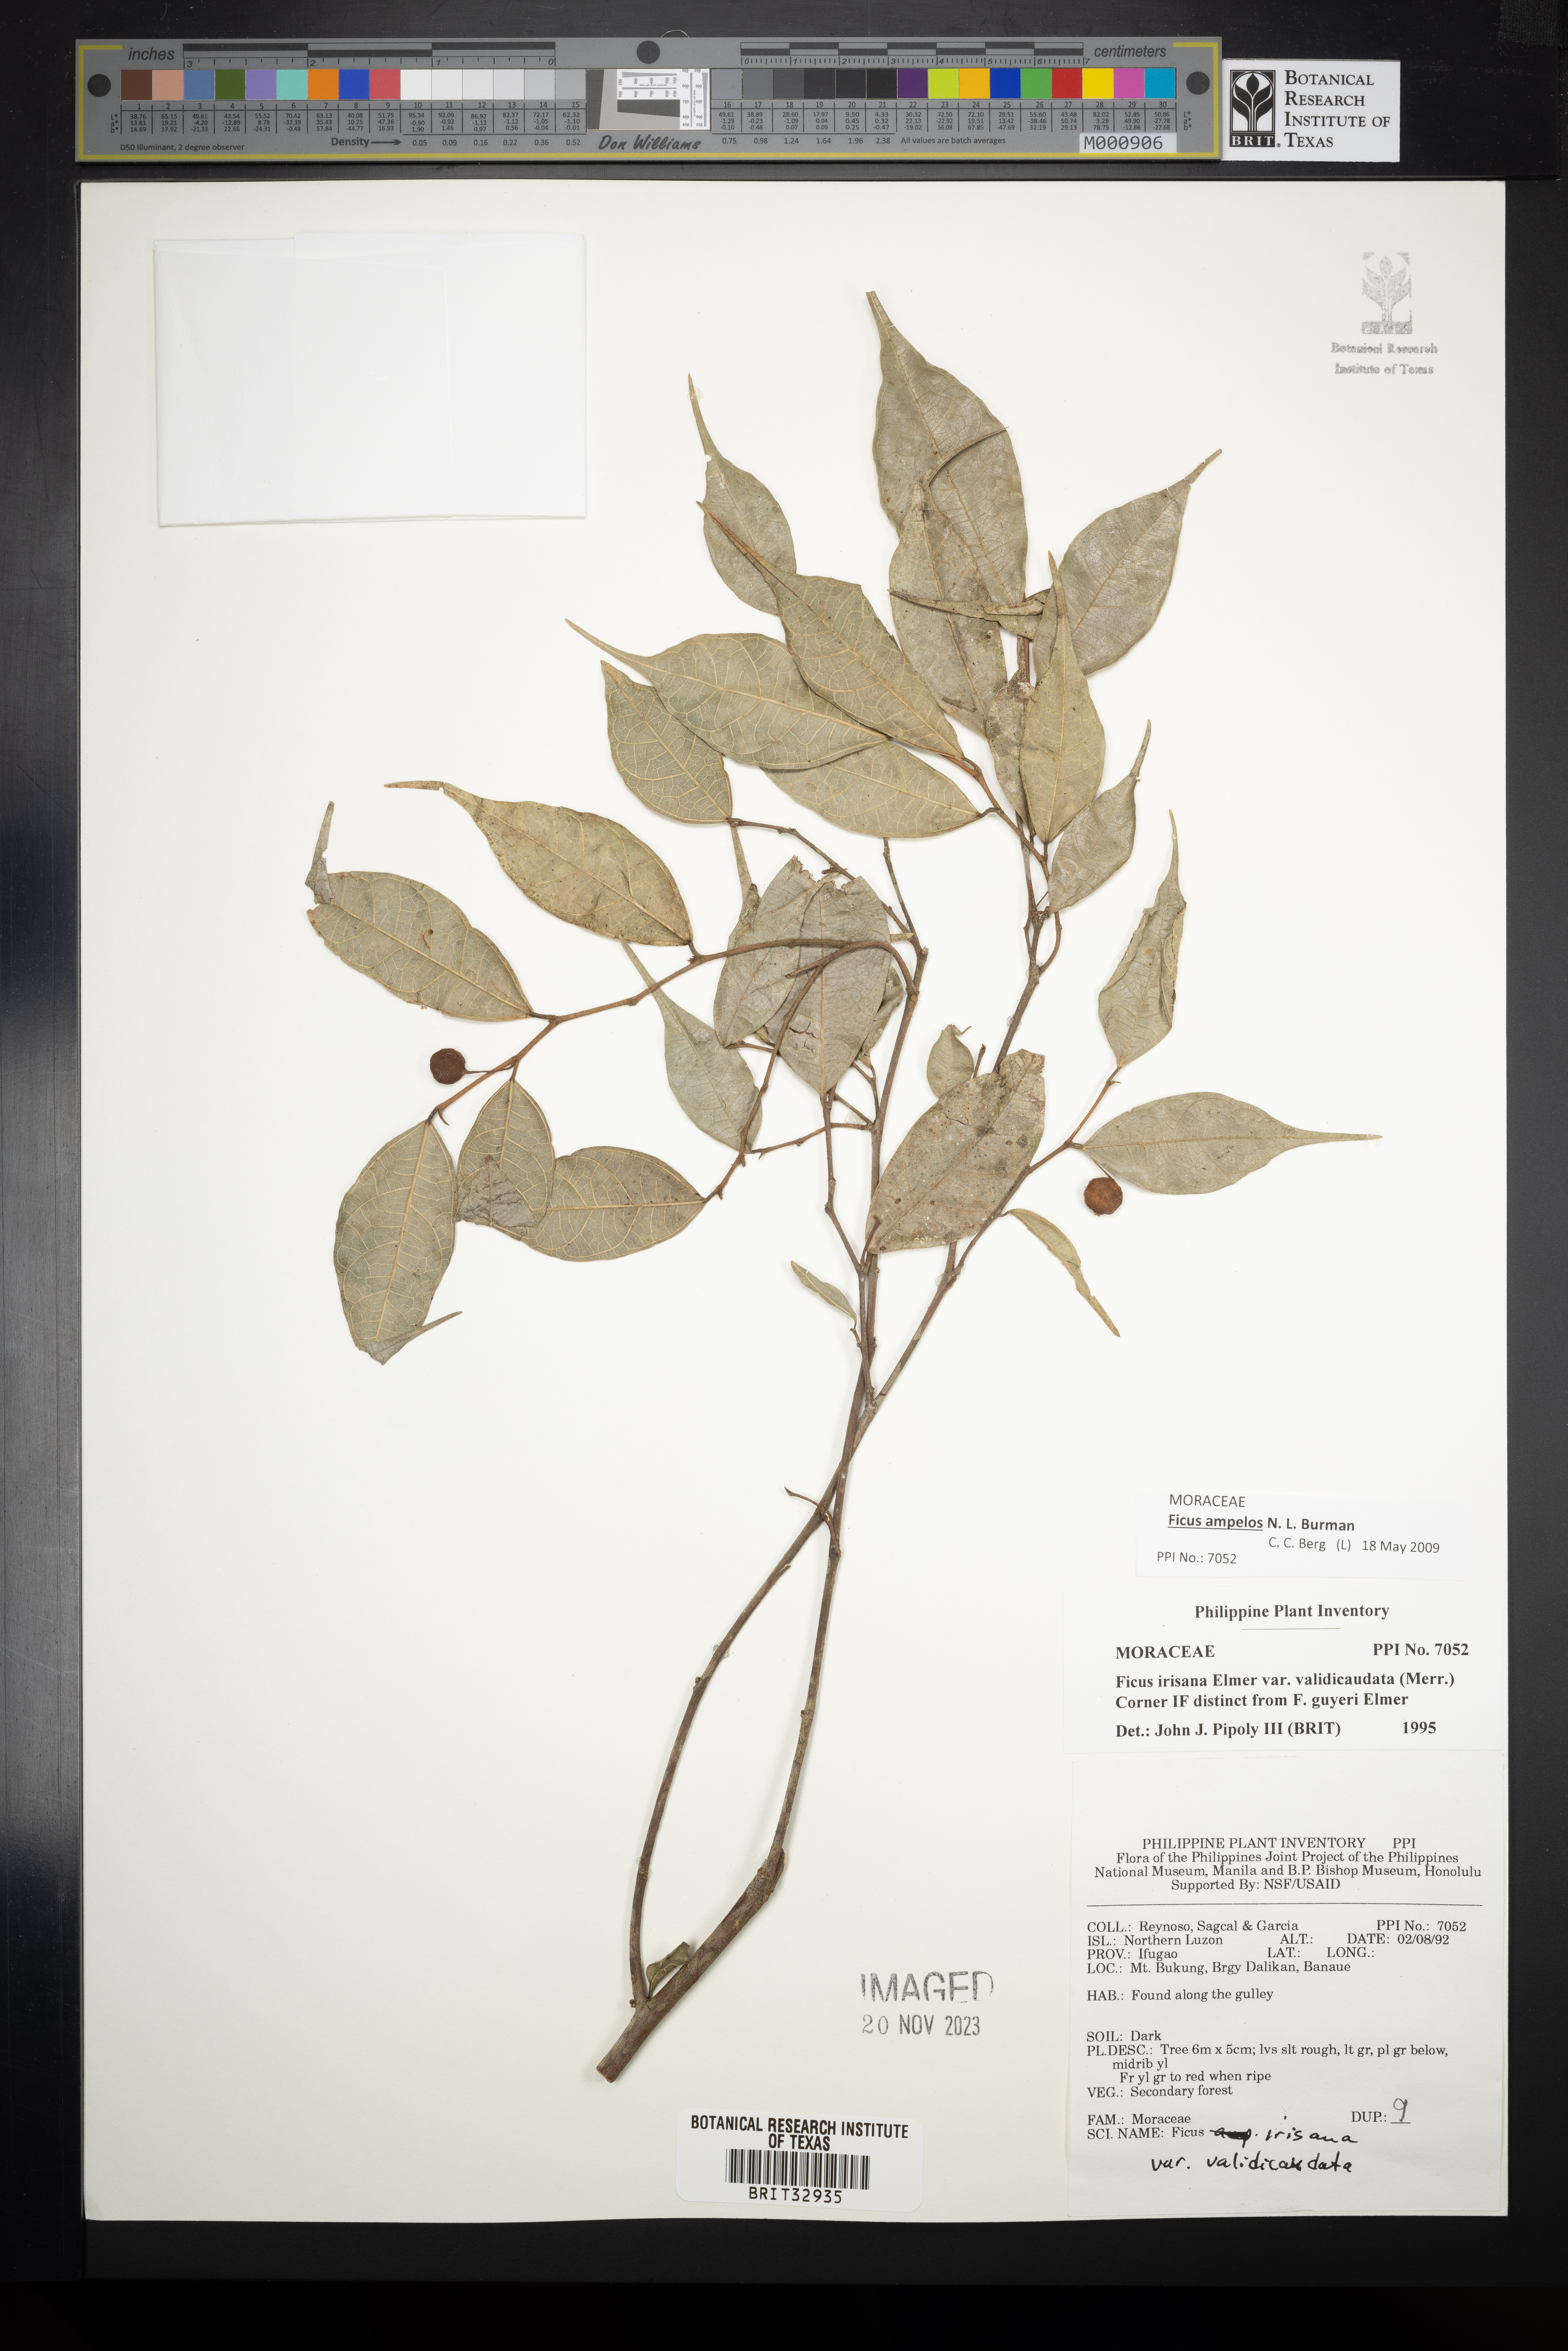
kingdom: Plantae
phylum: Tracheophyta
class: Magnoliopsida
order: Rosales
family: Moraceae
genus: Ficus
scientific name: Ficus ampelos
